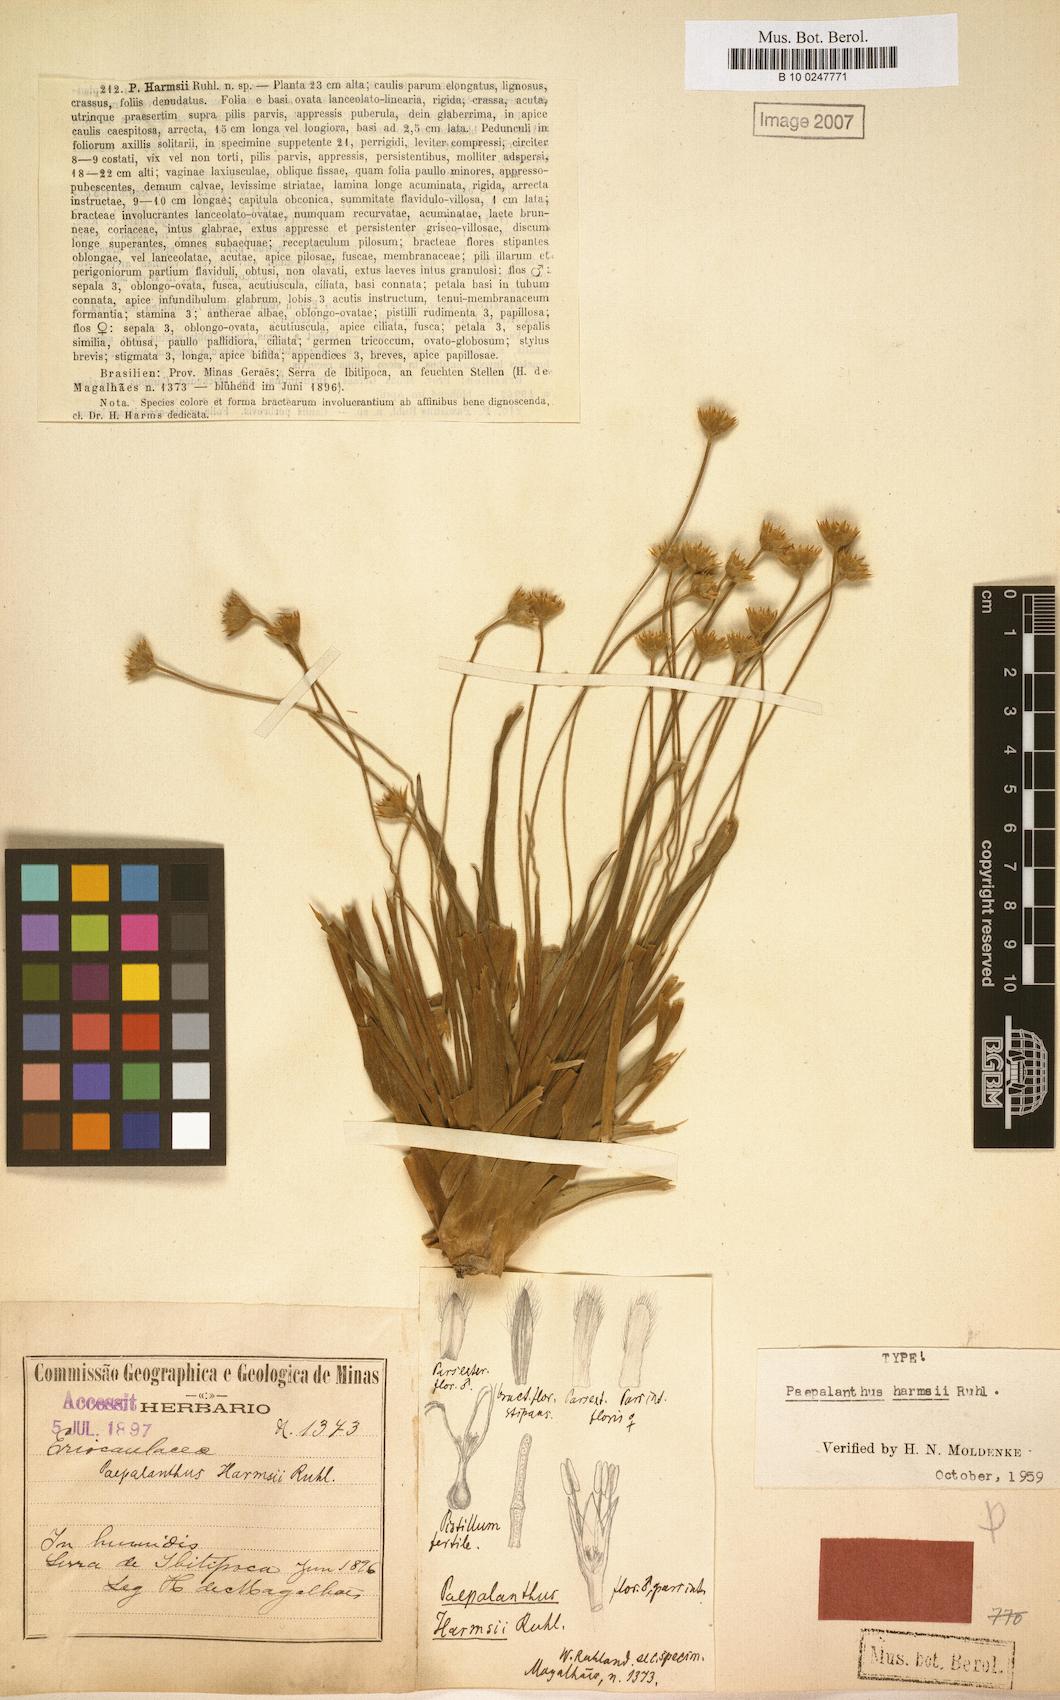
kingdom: Plantae
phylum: Tracheophyta
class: Liliopsida
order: Poales
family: Eriocaulaceae
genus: Paepalanthus
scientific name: Paepalanthus harmsii
